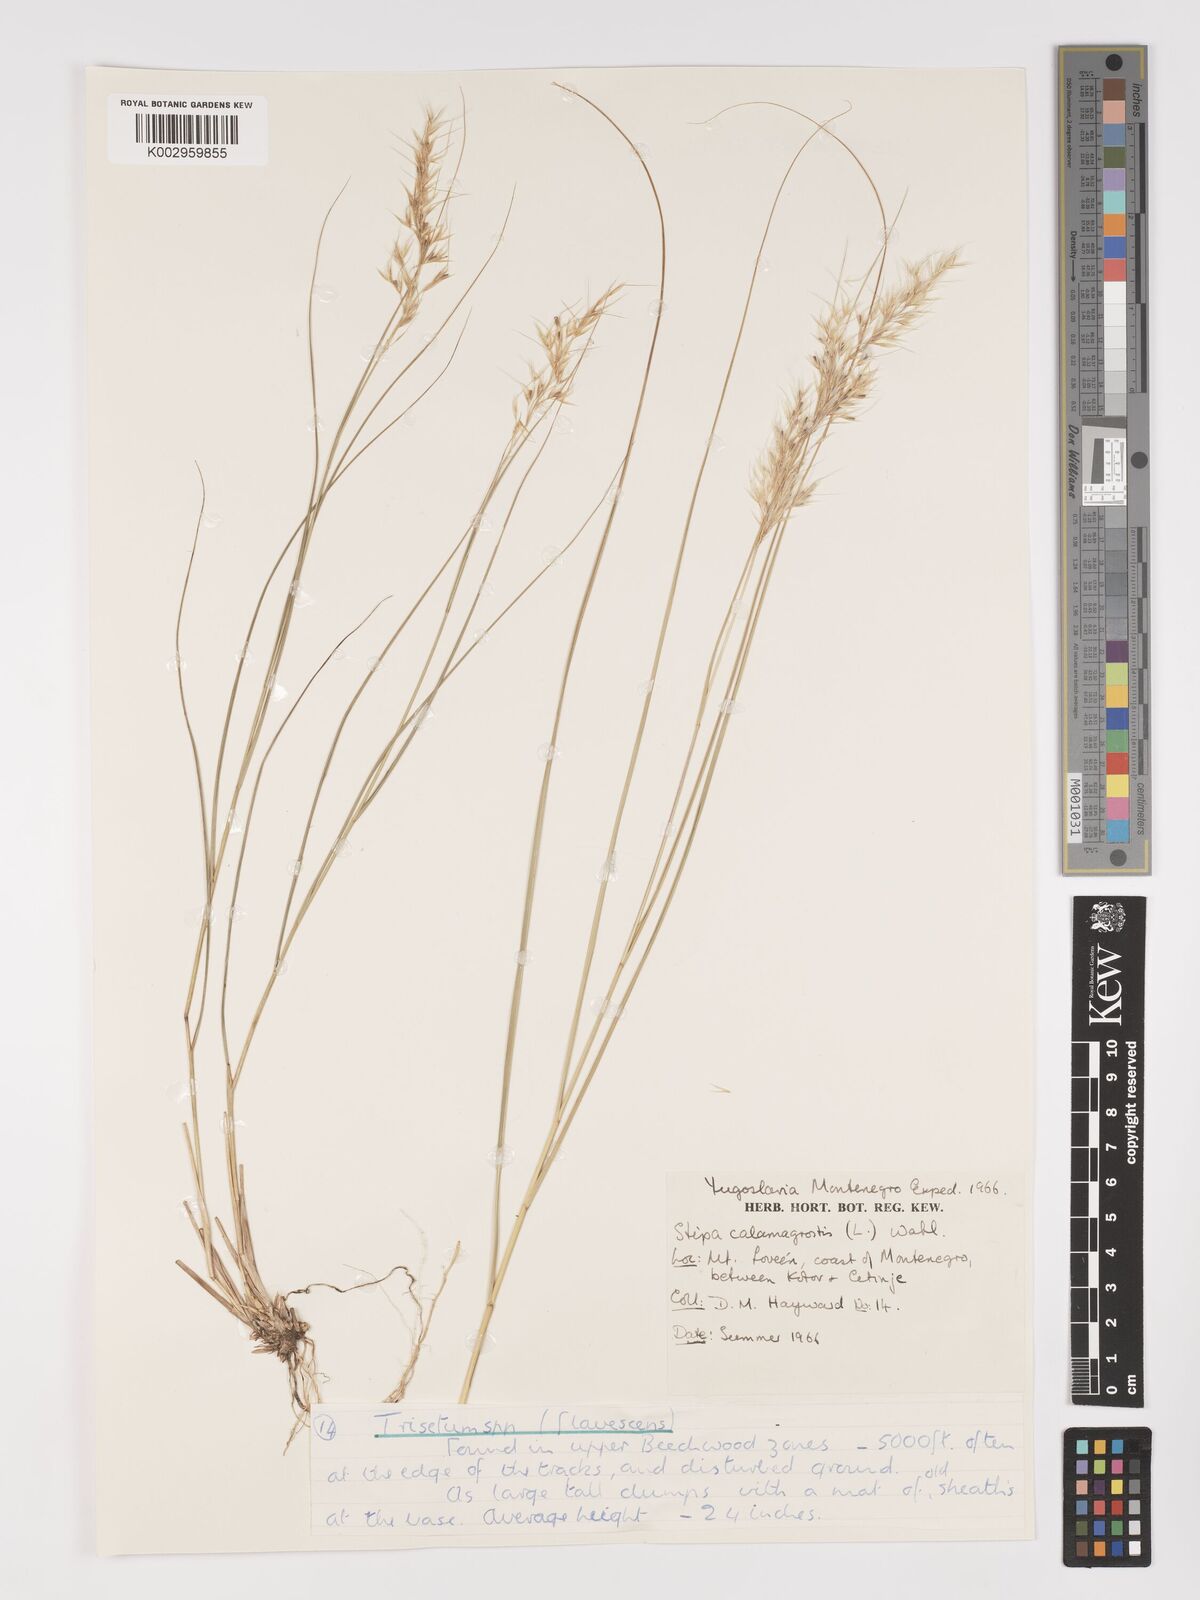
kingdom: Plantae
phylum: Tracheophyta
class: Liliopsida
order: Poales
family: Poaceae
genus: Achnatherum
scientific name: Achnatherum calamagrostis
